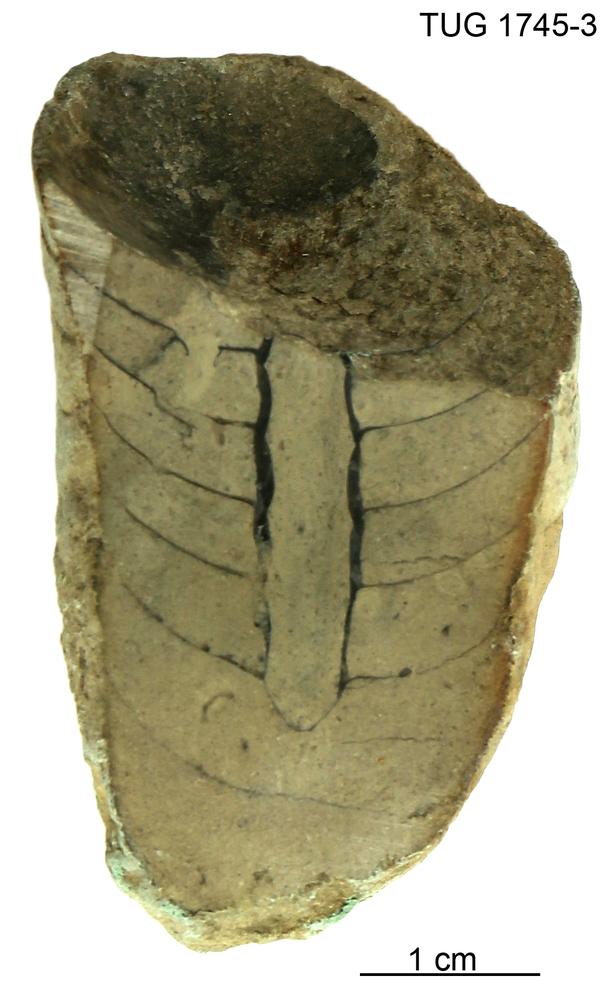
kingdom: Animalia
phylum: Mollusca
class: Cephalopoda
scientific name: Cephalopoda
